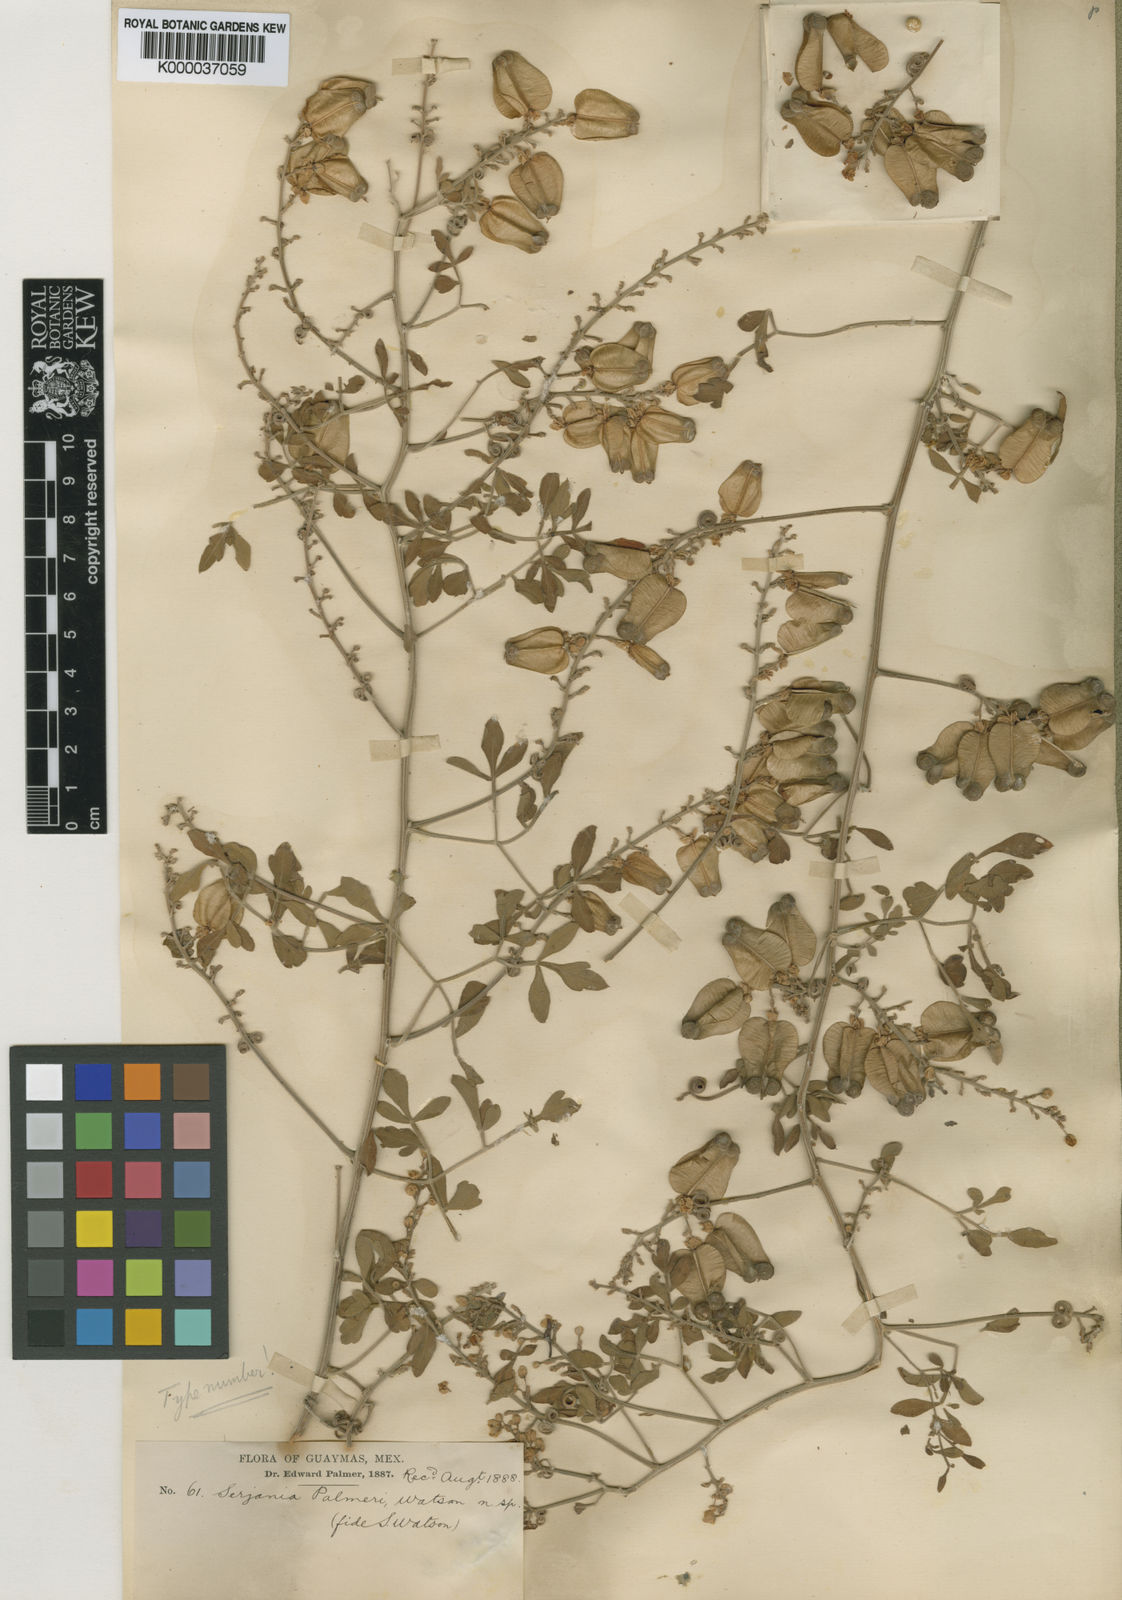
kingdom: Plantae
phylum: Tracheophyta
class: Magnoliopsida
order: Sapindales
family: Sapindaceae
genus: Serjania
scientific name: Serjania palmeri
